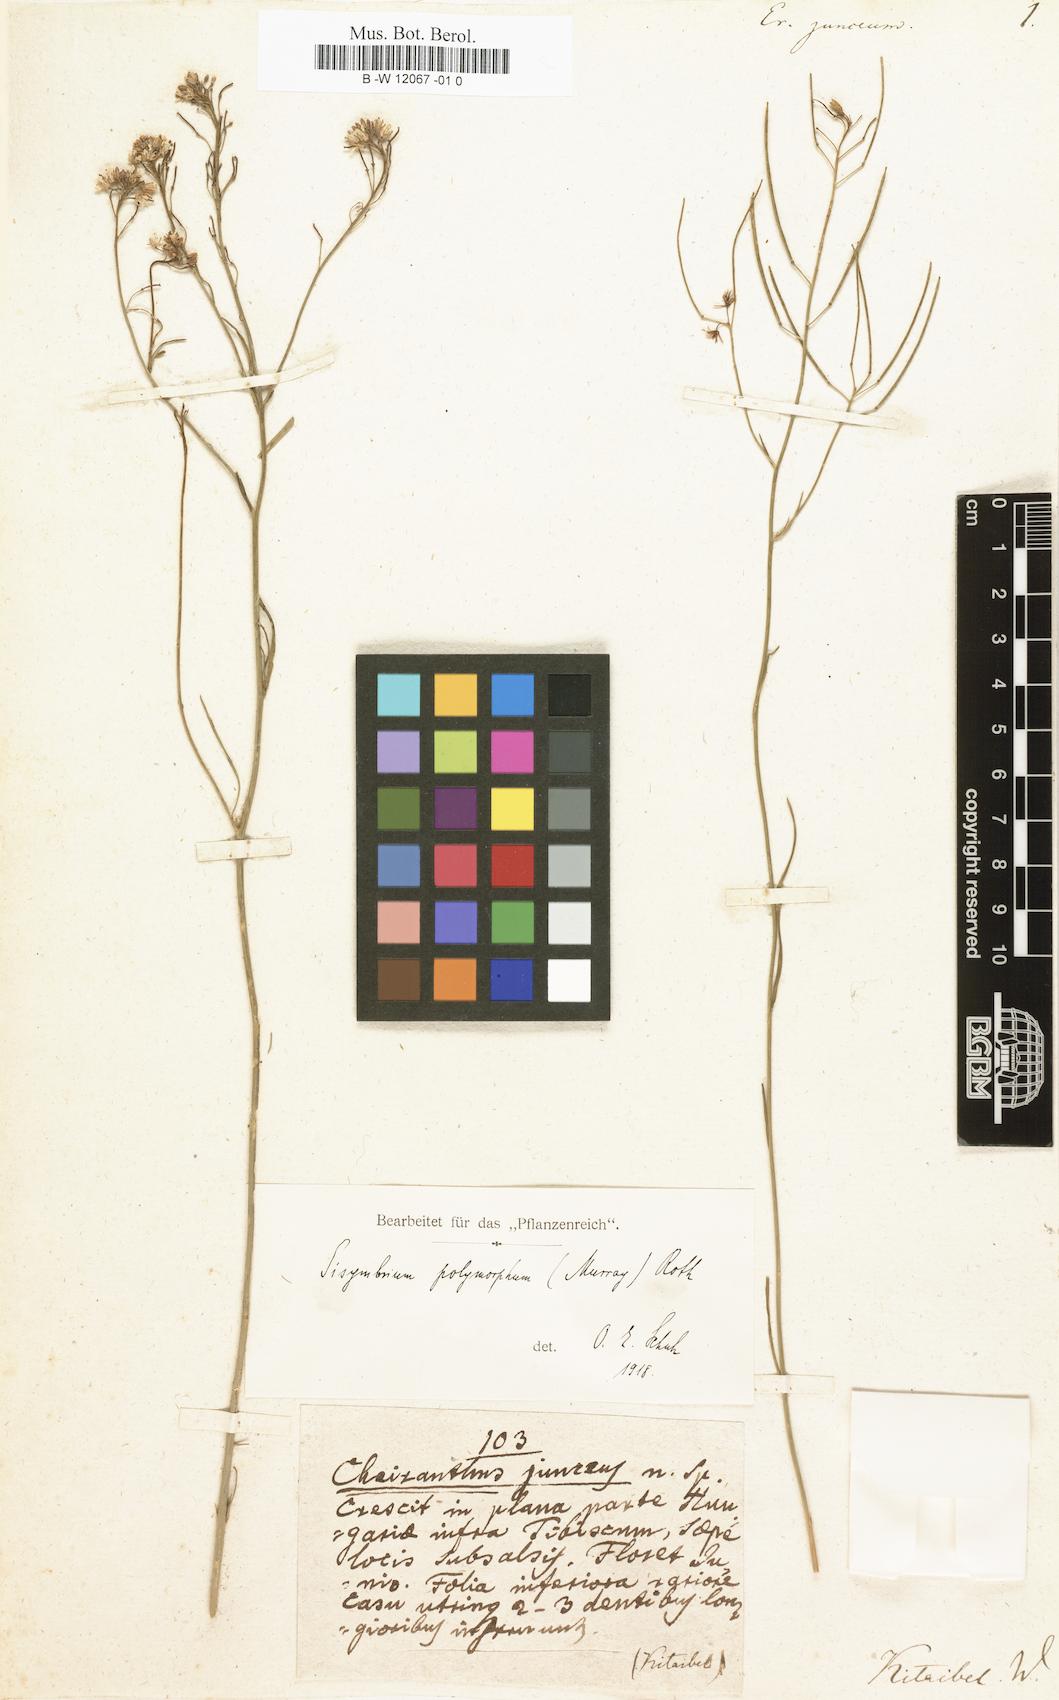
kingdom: Plantae
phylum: Tracheophyta
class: Magnoliopsida
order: Brassicales
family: Brassicaceae
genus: Sisymbrium
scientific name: Sisymbrium polymorphum
